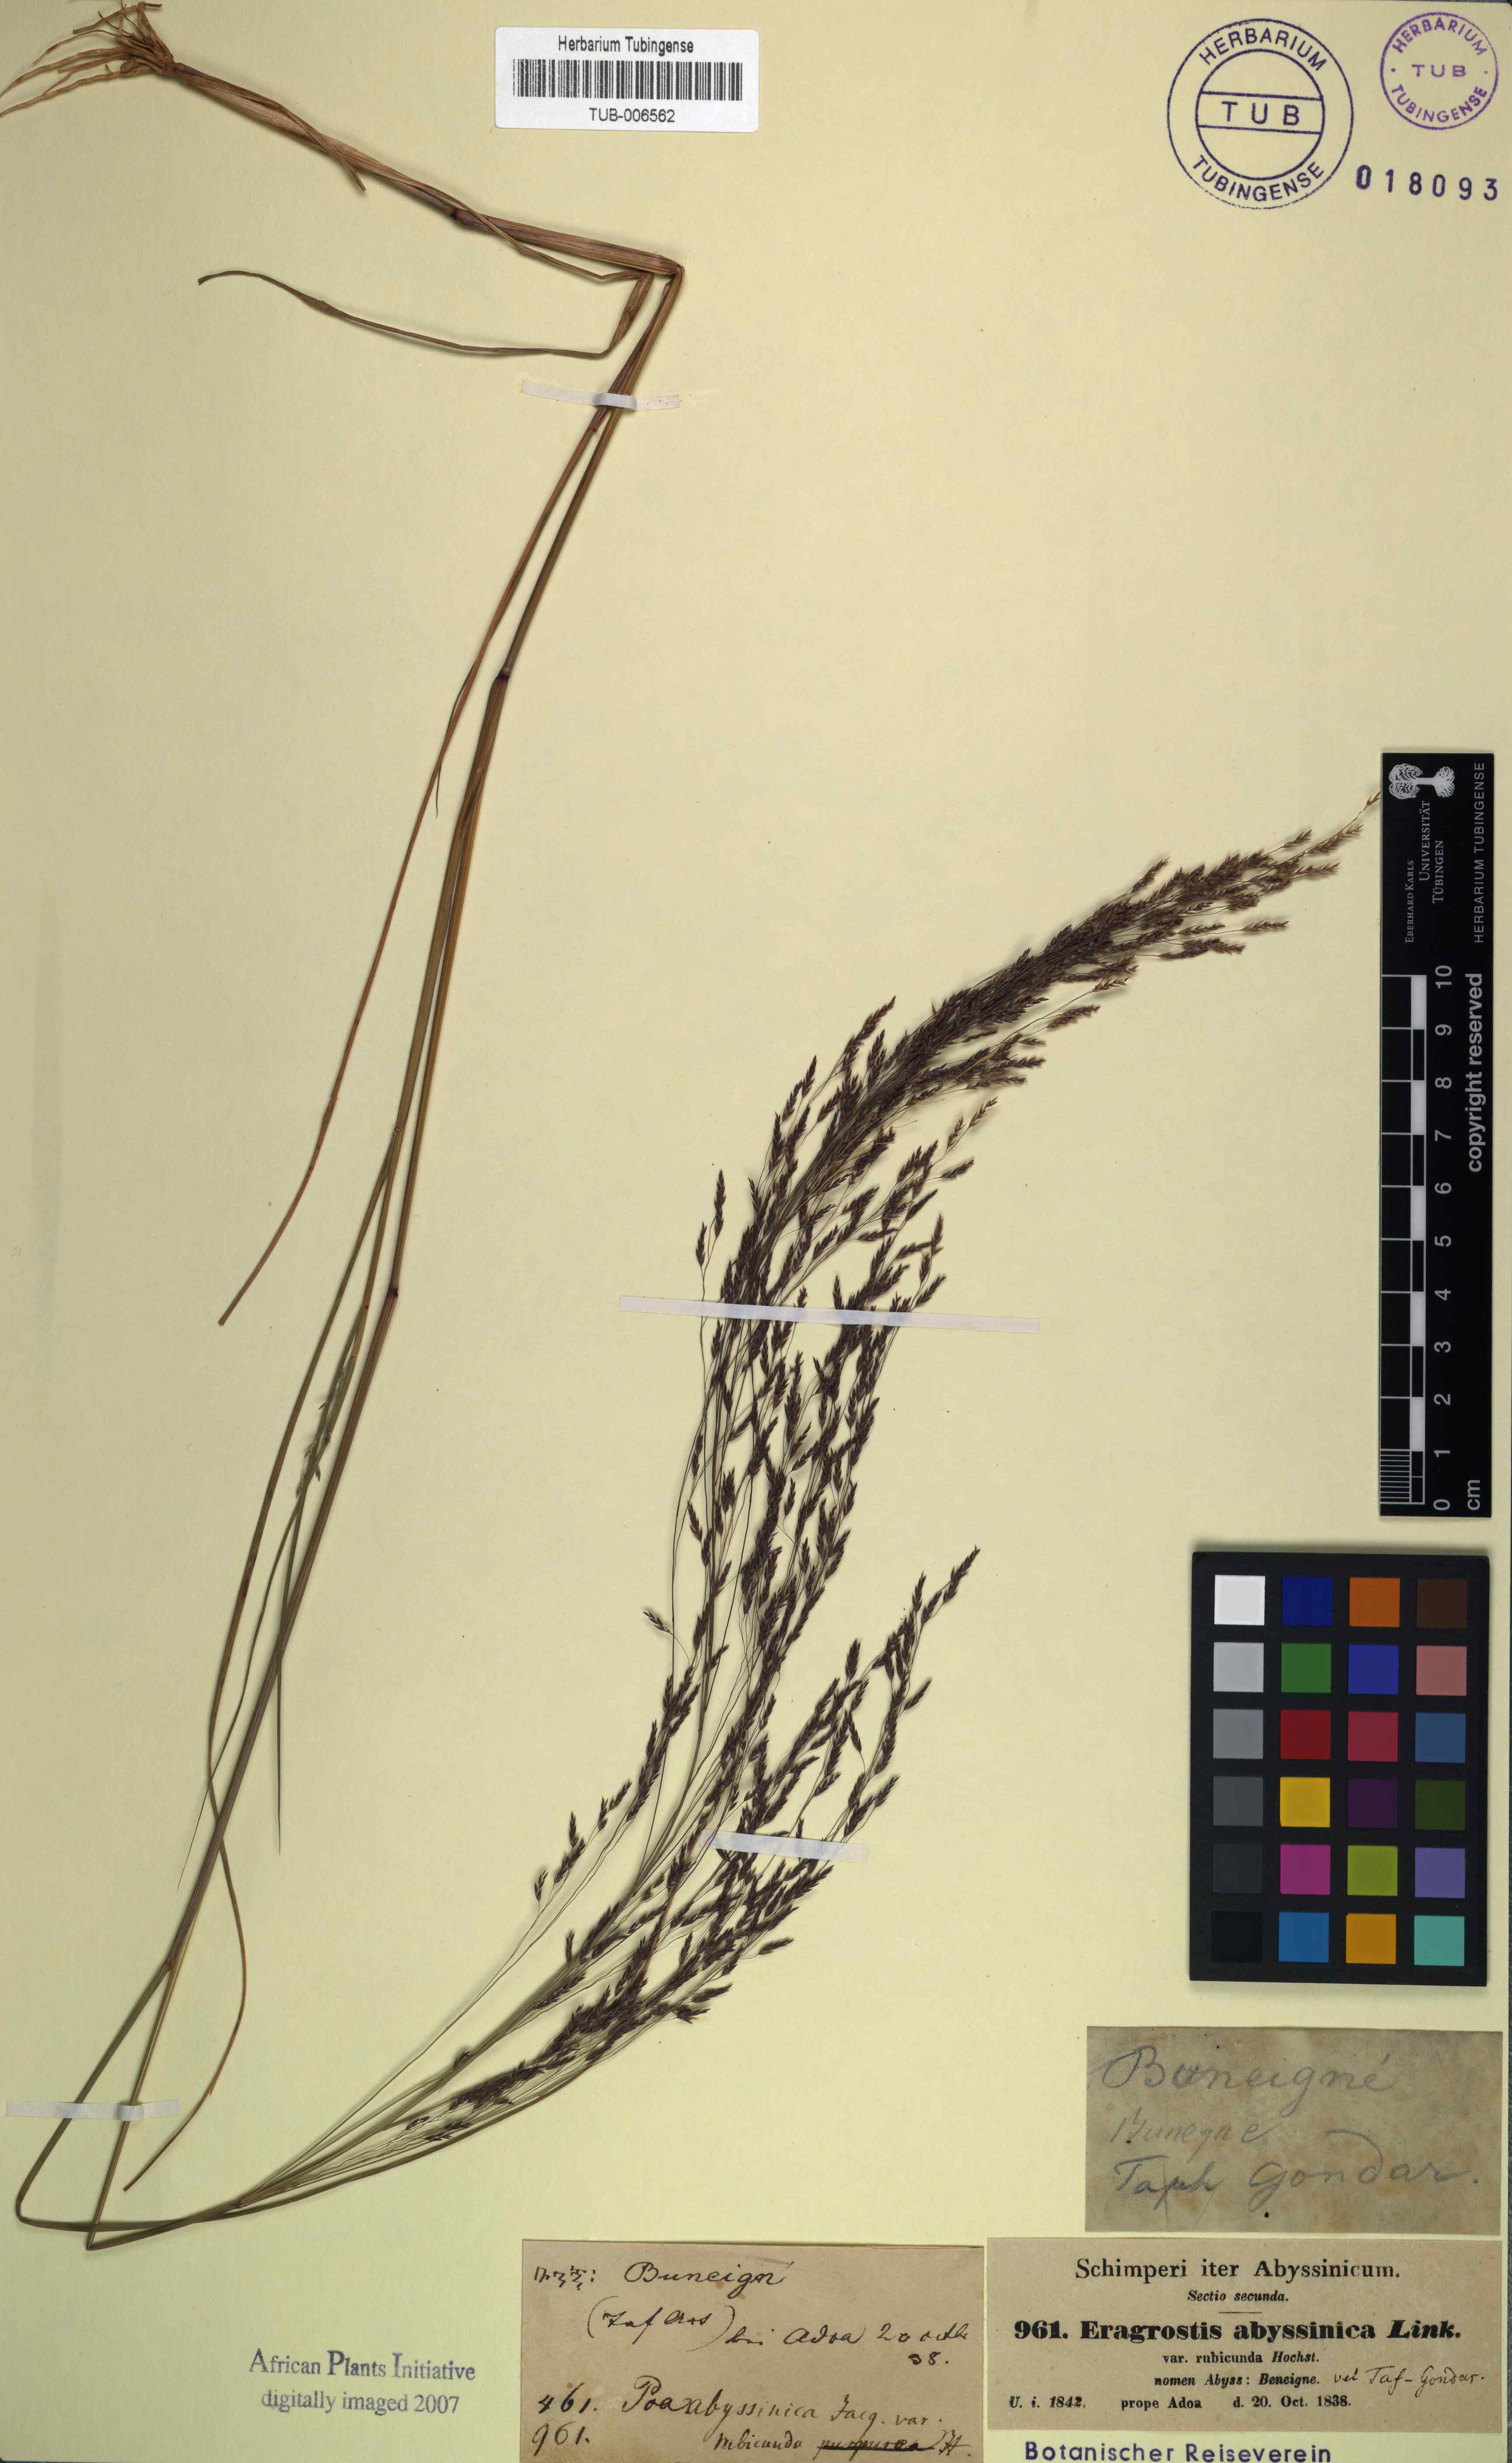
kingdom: Plantae
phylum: Tracheophyta
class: Liliopsida
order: Poales
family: Poaceae
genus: Eragrostis
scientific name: Eragrostis tef
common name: Teff
